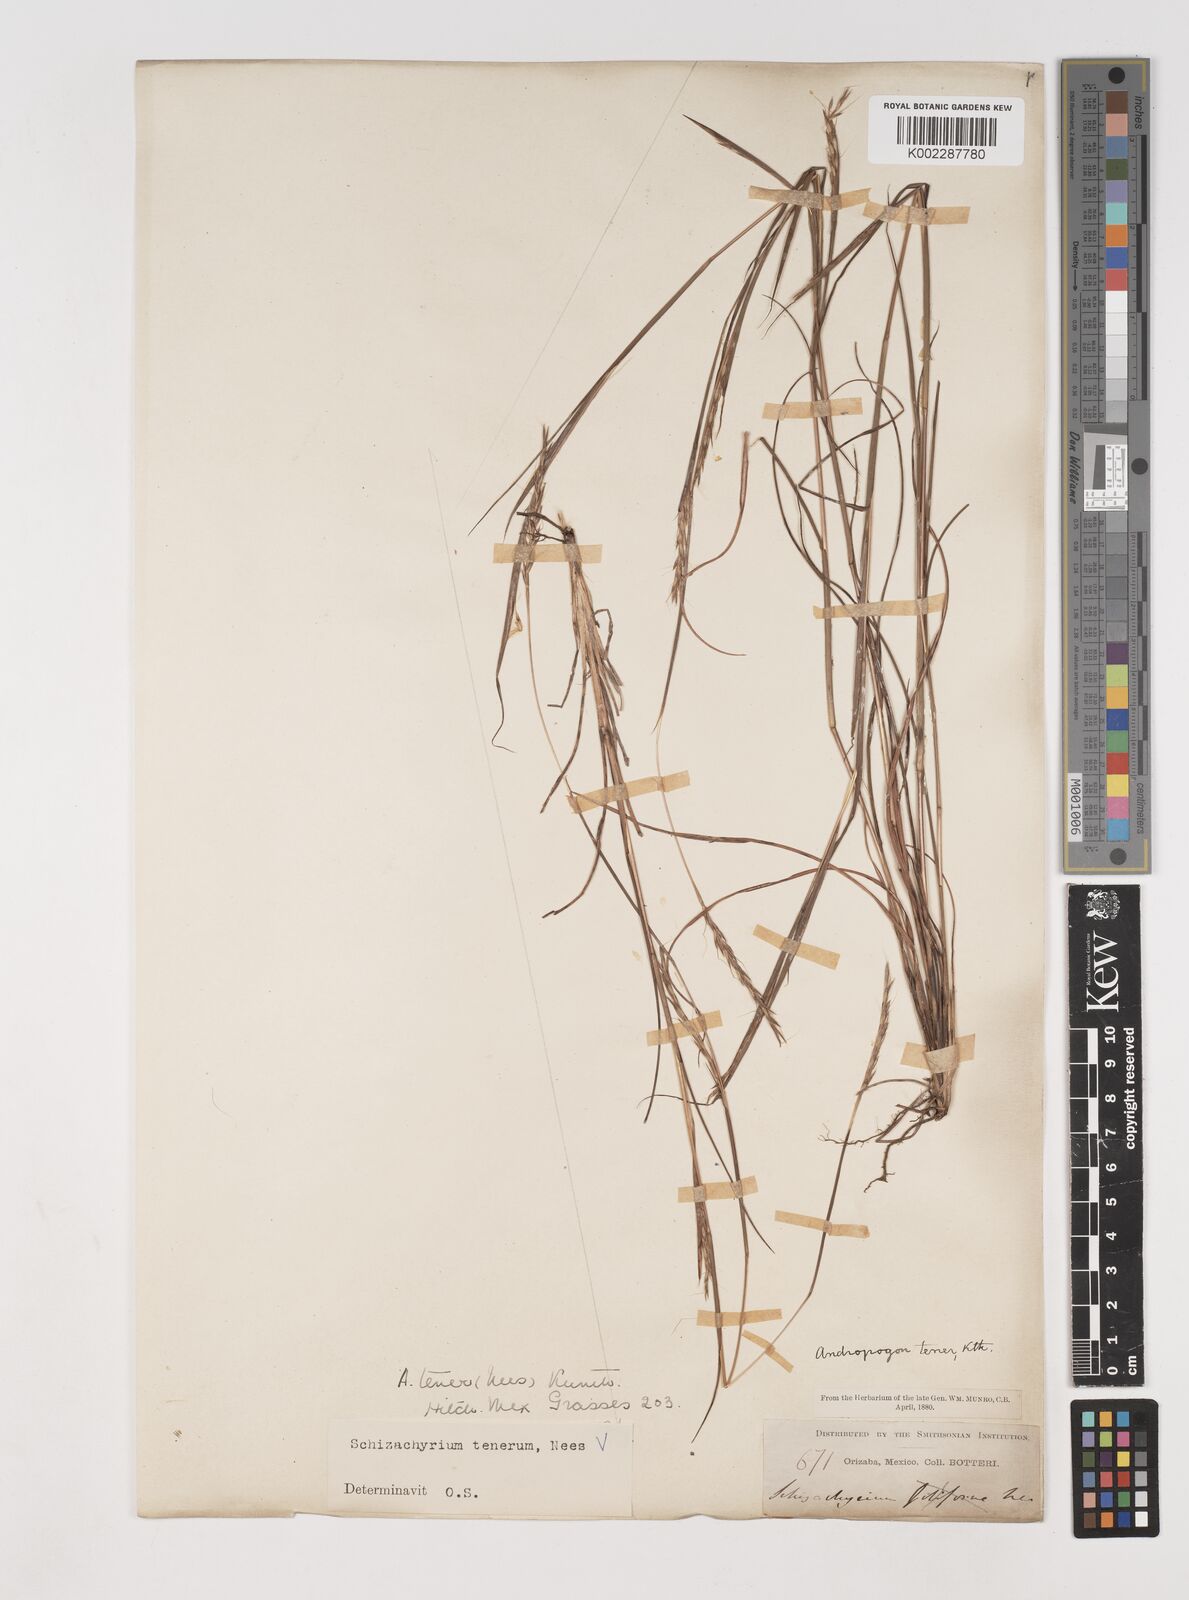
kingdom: Plantae
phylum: Tracheophyta
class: Liliopsida
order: Poales
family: Poaceae
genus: Andropogon
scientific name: Andropogon tener
